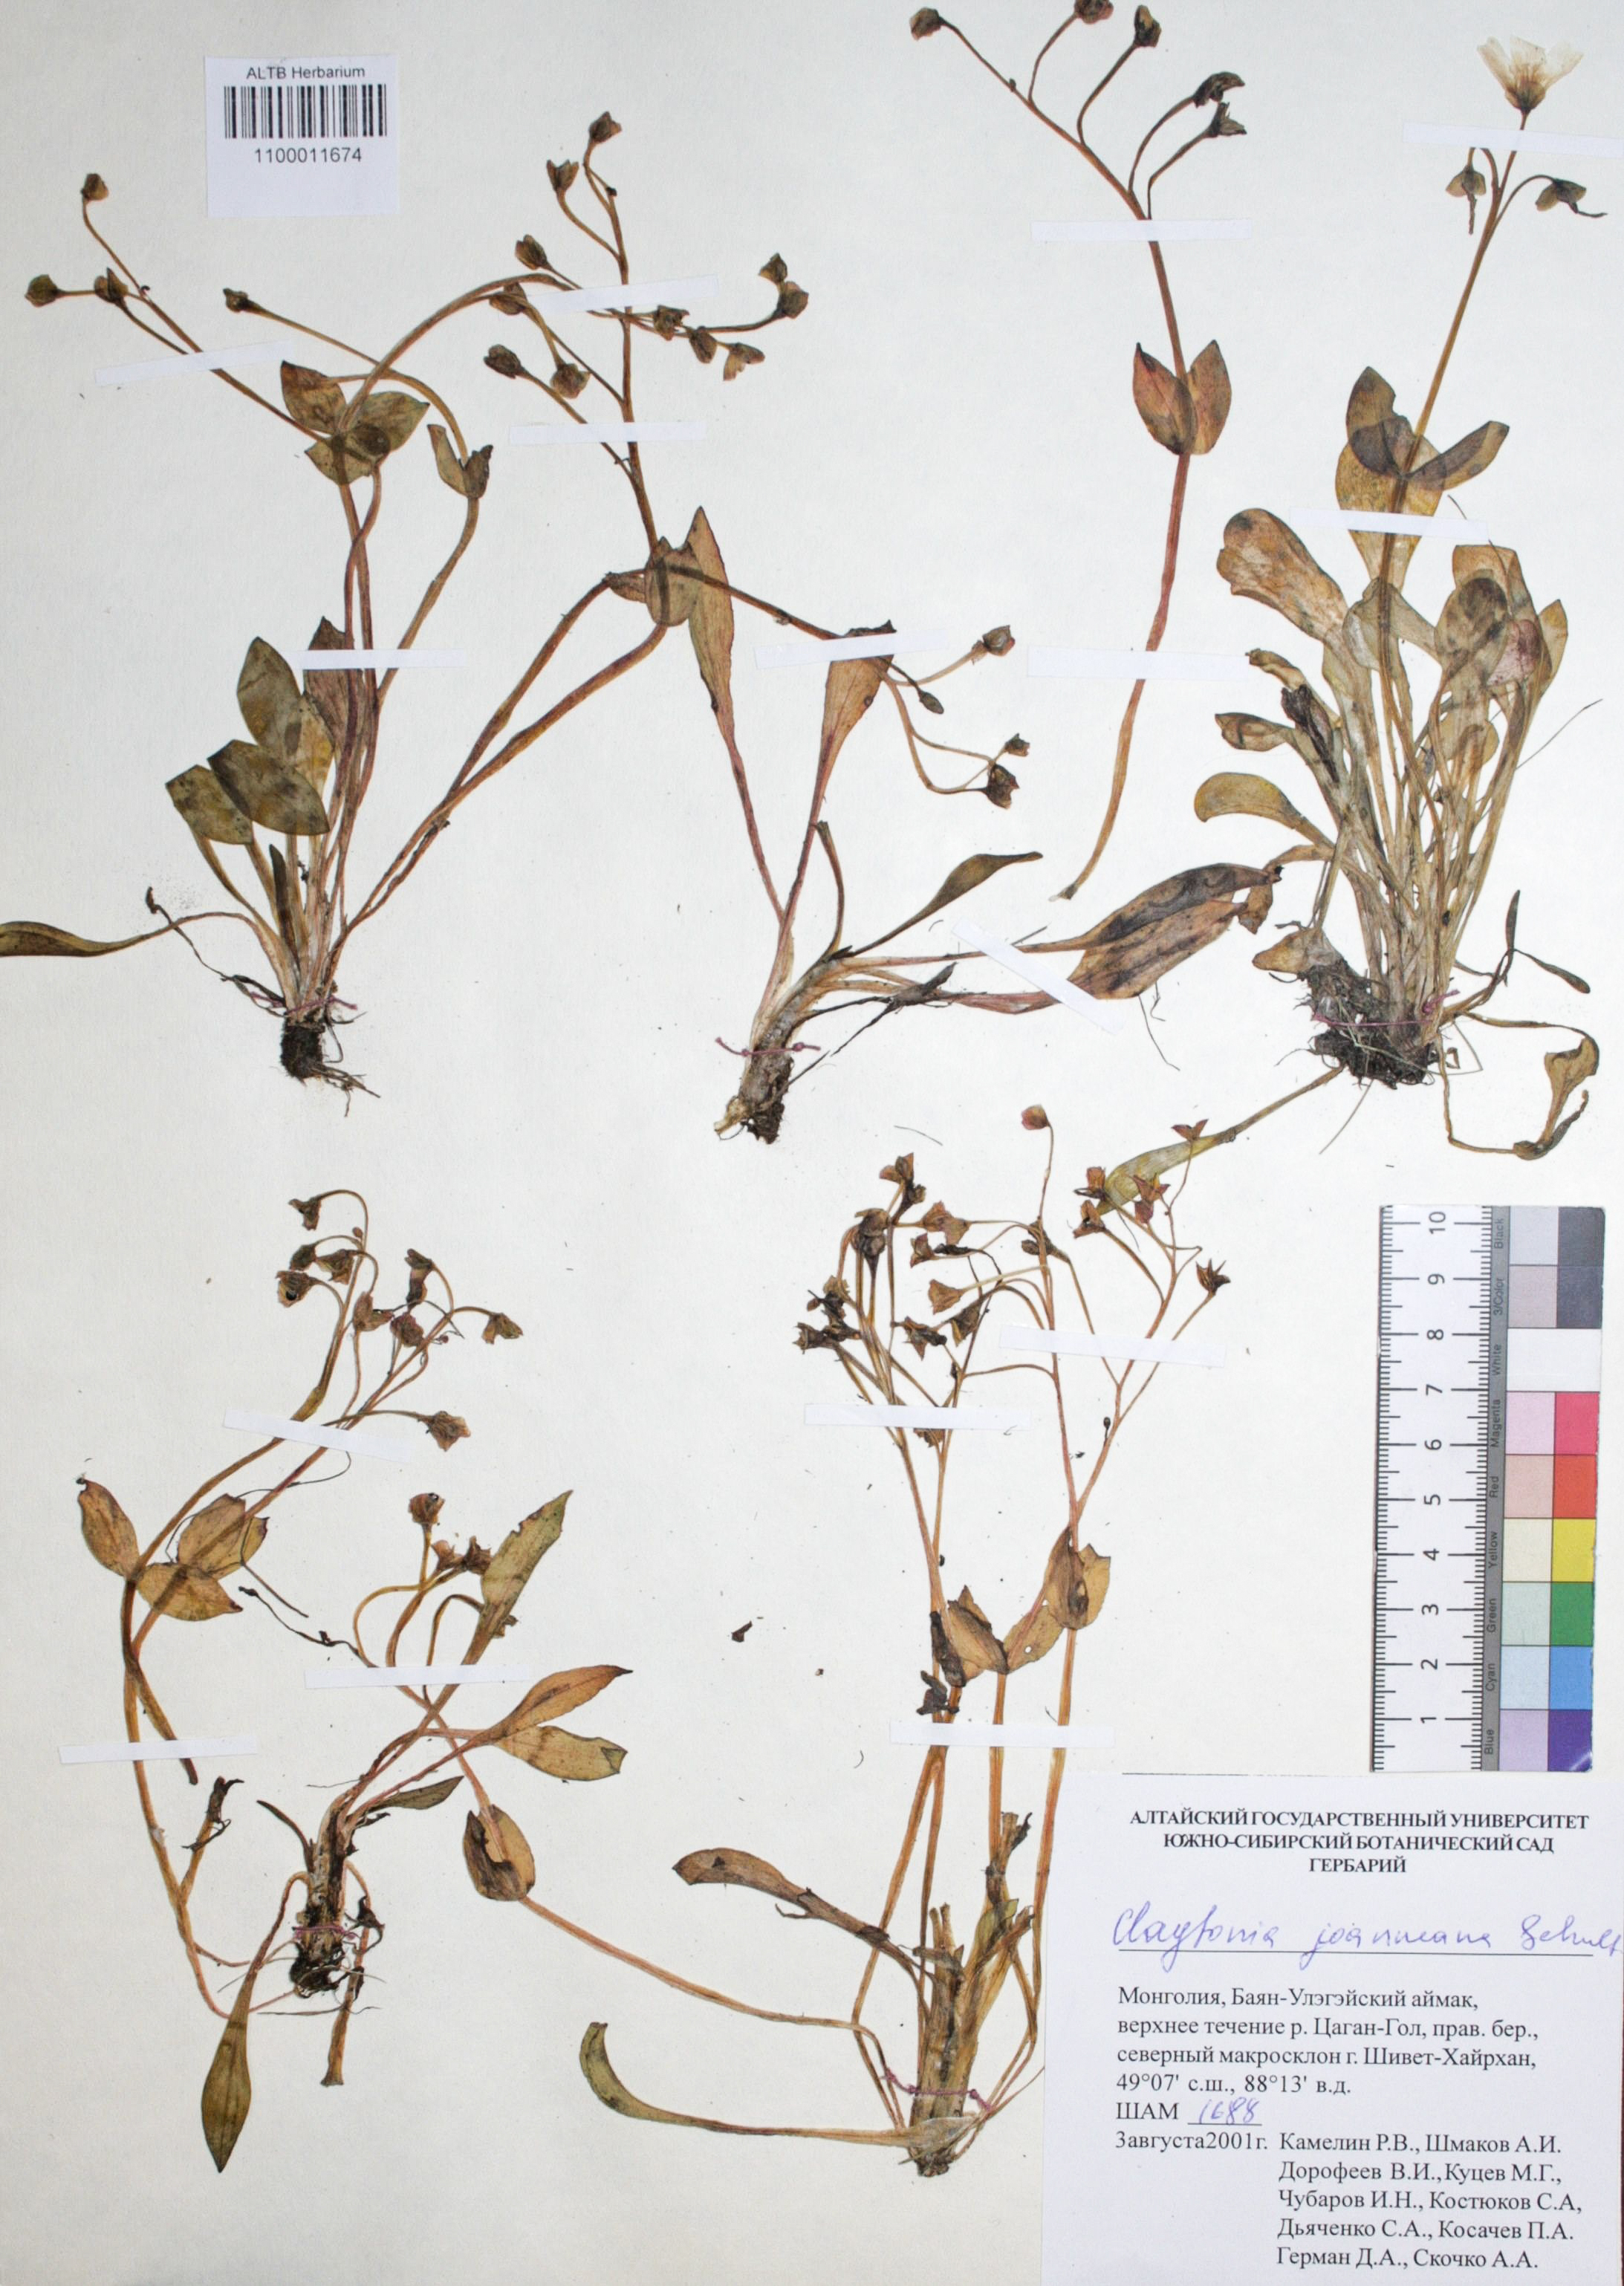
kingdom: Plantae
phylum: Tracheophyta
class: Magnoliopsida
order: Caryophyllales
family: Montiaceae
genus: Claytonia
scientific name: Claytonia joanneana
